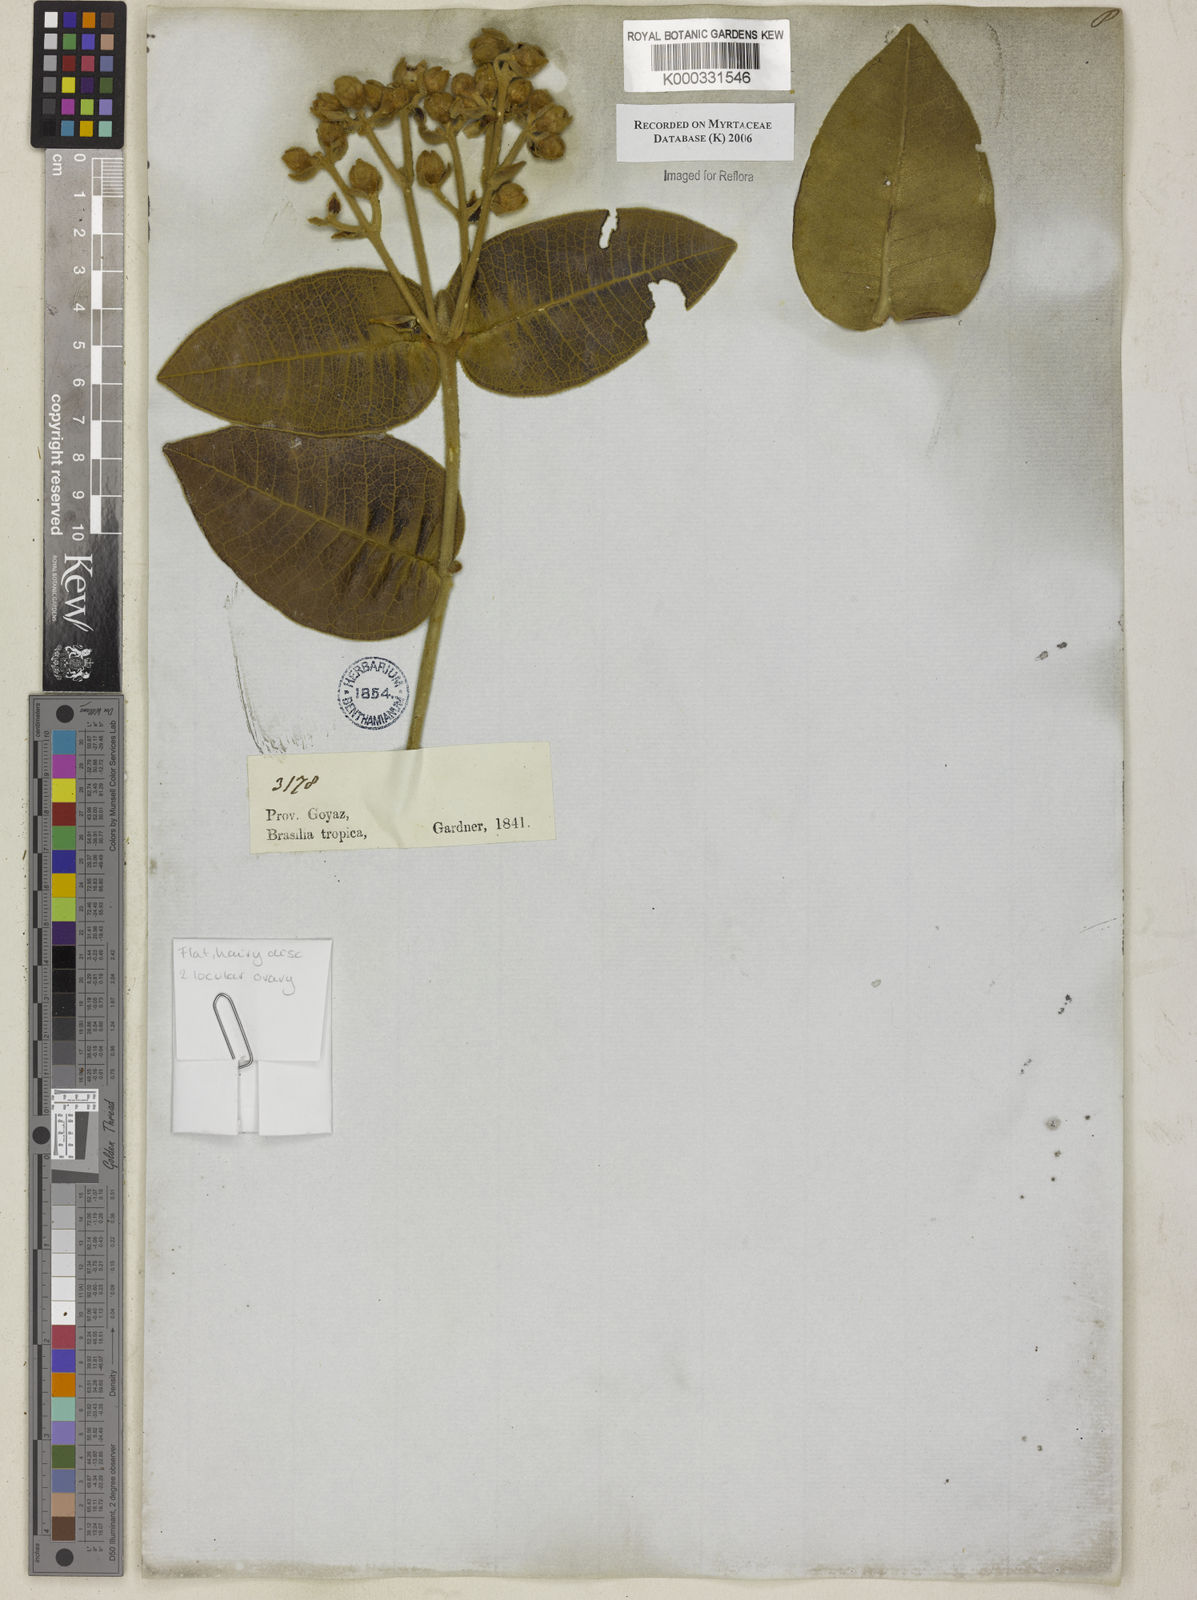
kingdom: Plantae
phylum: Tracheophyta
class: Magnoliopsida
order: Myrtales
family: Myrtaceae
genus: Myrcia
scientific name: Myrcia
